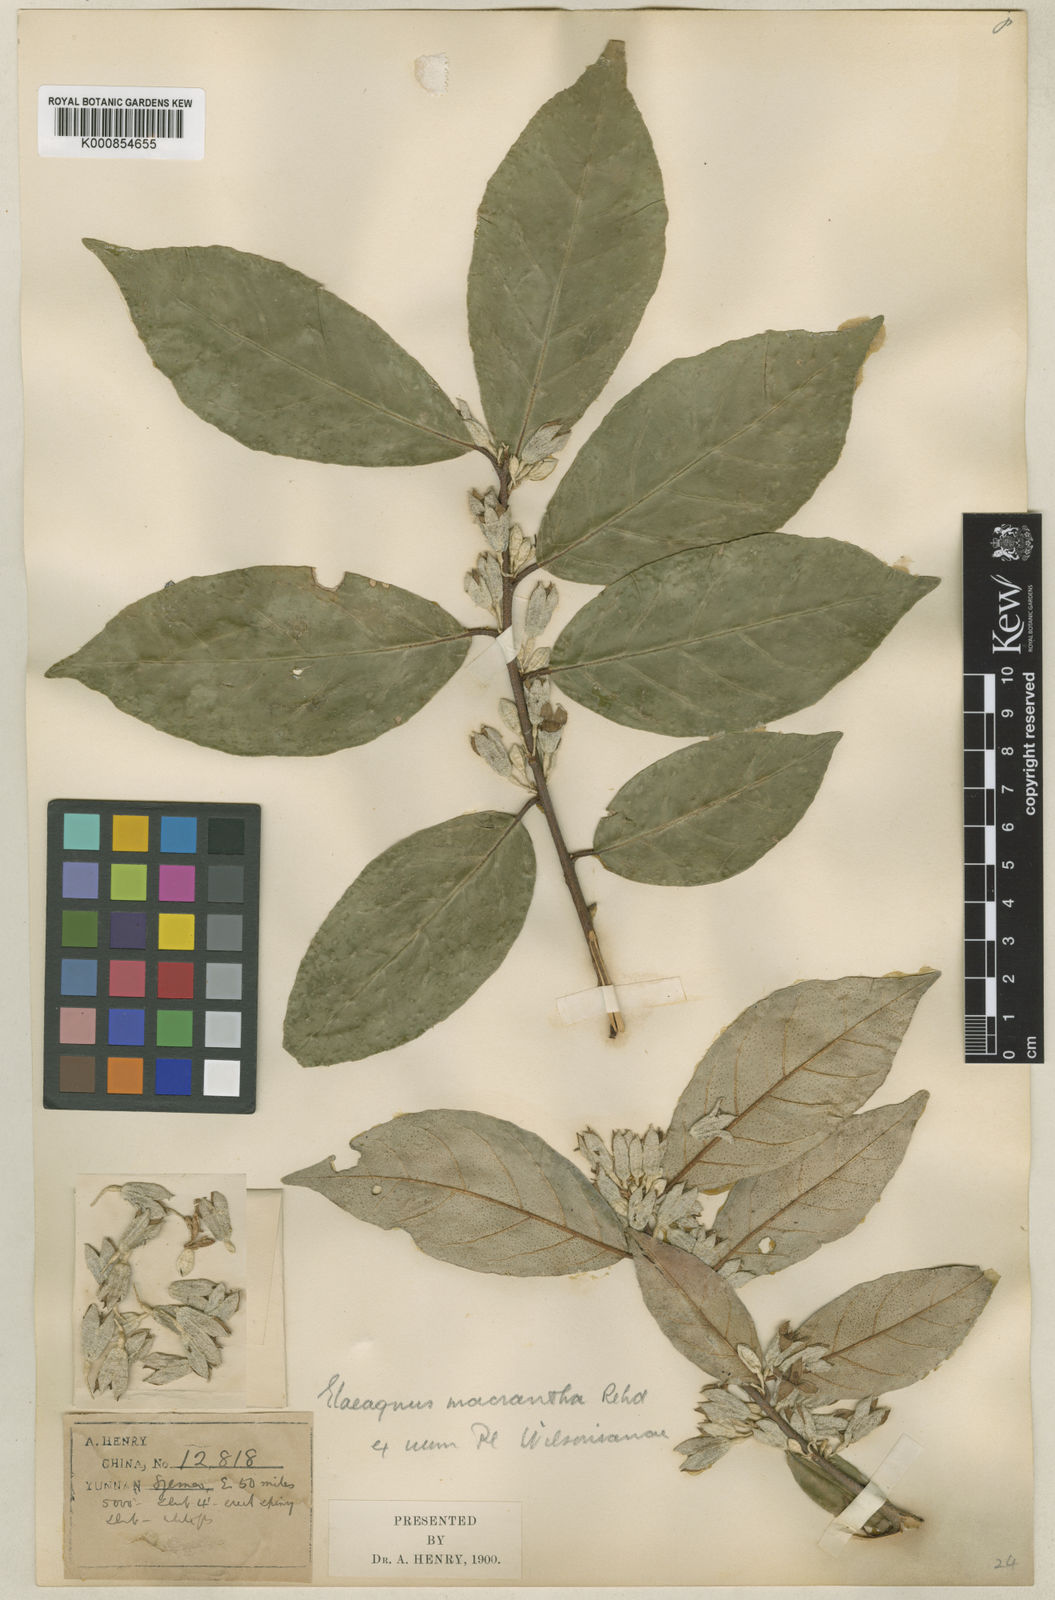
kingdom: Plantae
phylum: Tracheophyta
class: Magnoliopsida
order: Rosales
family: Elaeagnaceae
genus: Elaeagnus
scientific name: Elaeagnus macrantha
